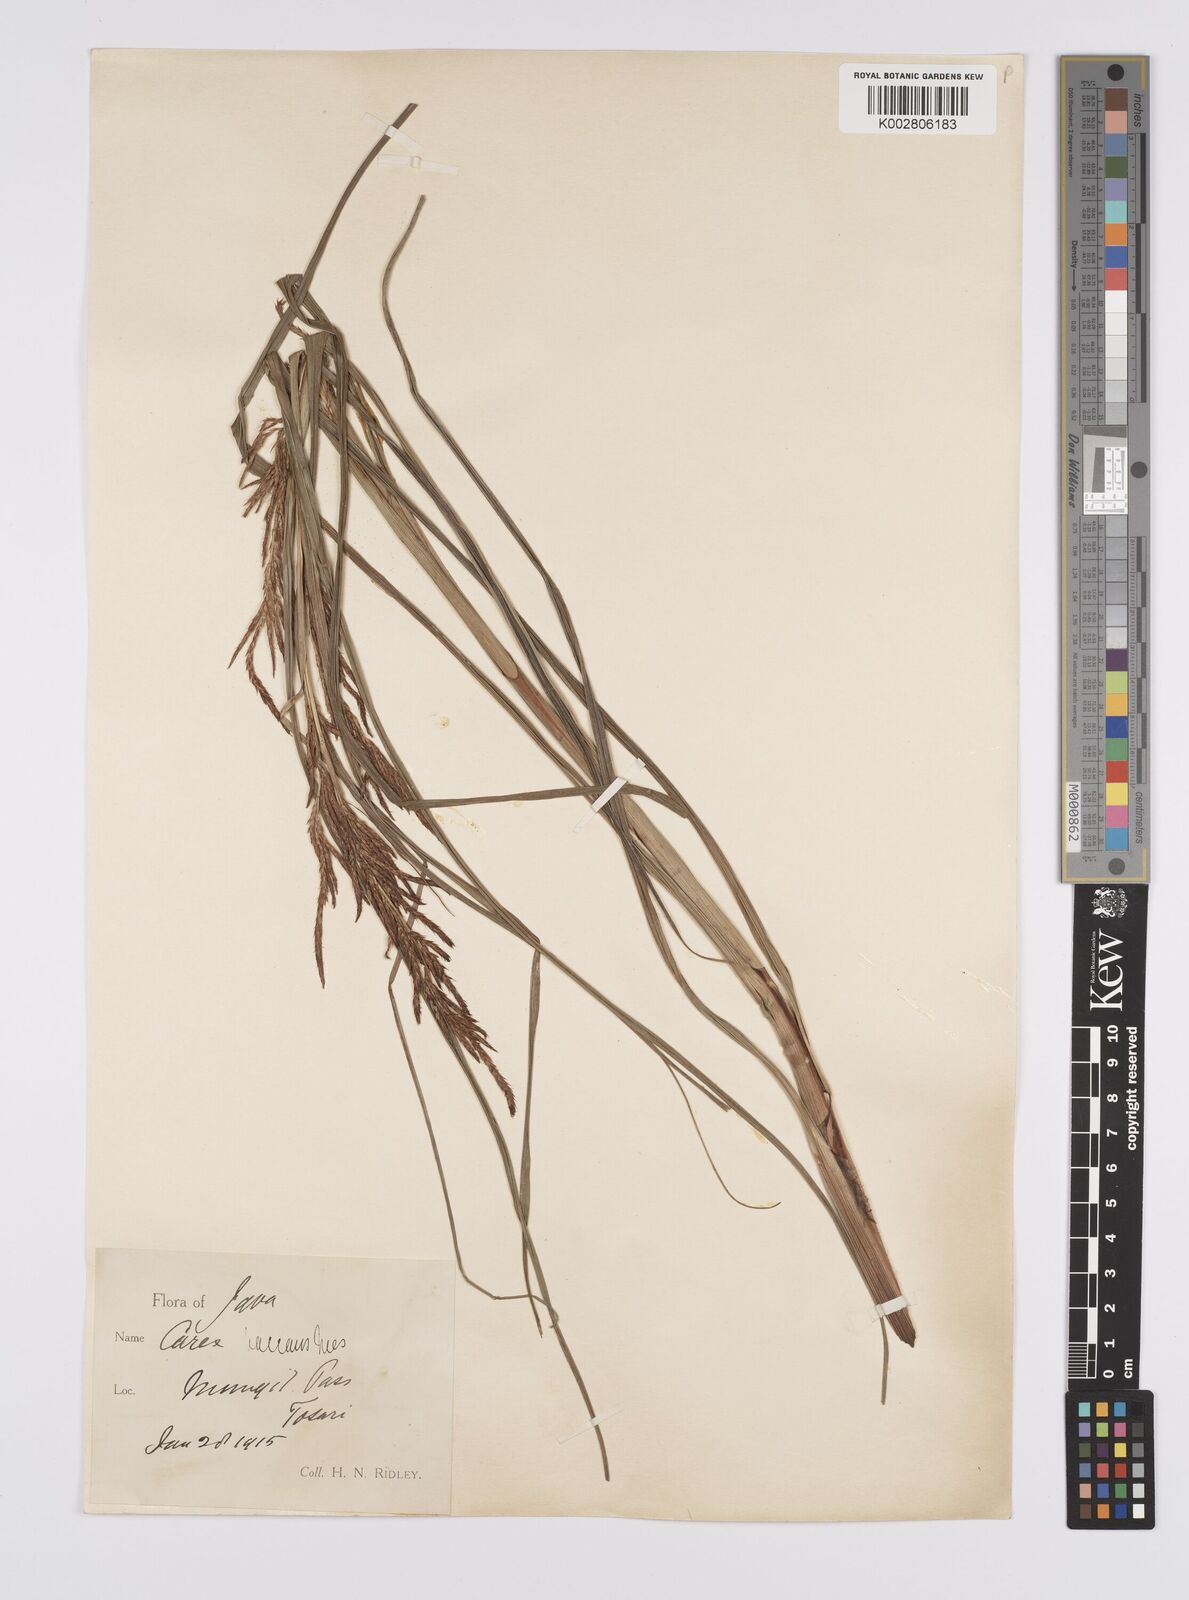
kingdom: Plantae
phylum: Tracheophyta
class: Liliopsida
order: Poales
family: Cyperaceae
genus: Carex
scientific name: Carex baccans
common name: Crimson seeded sedge
